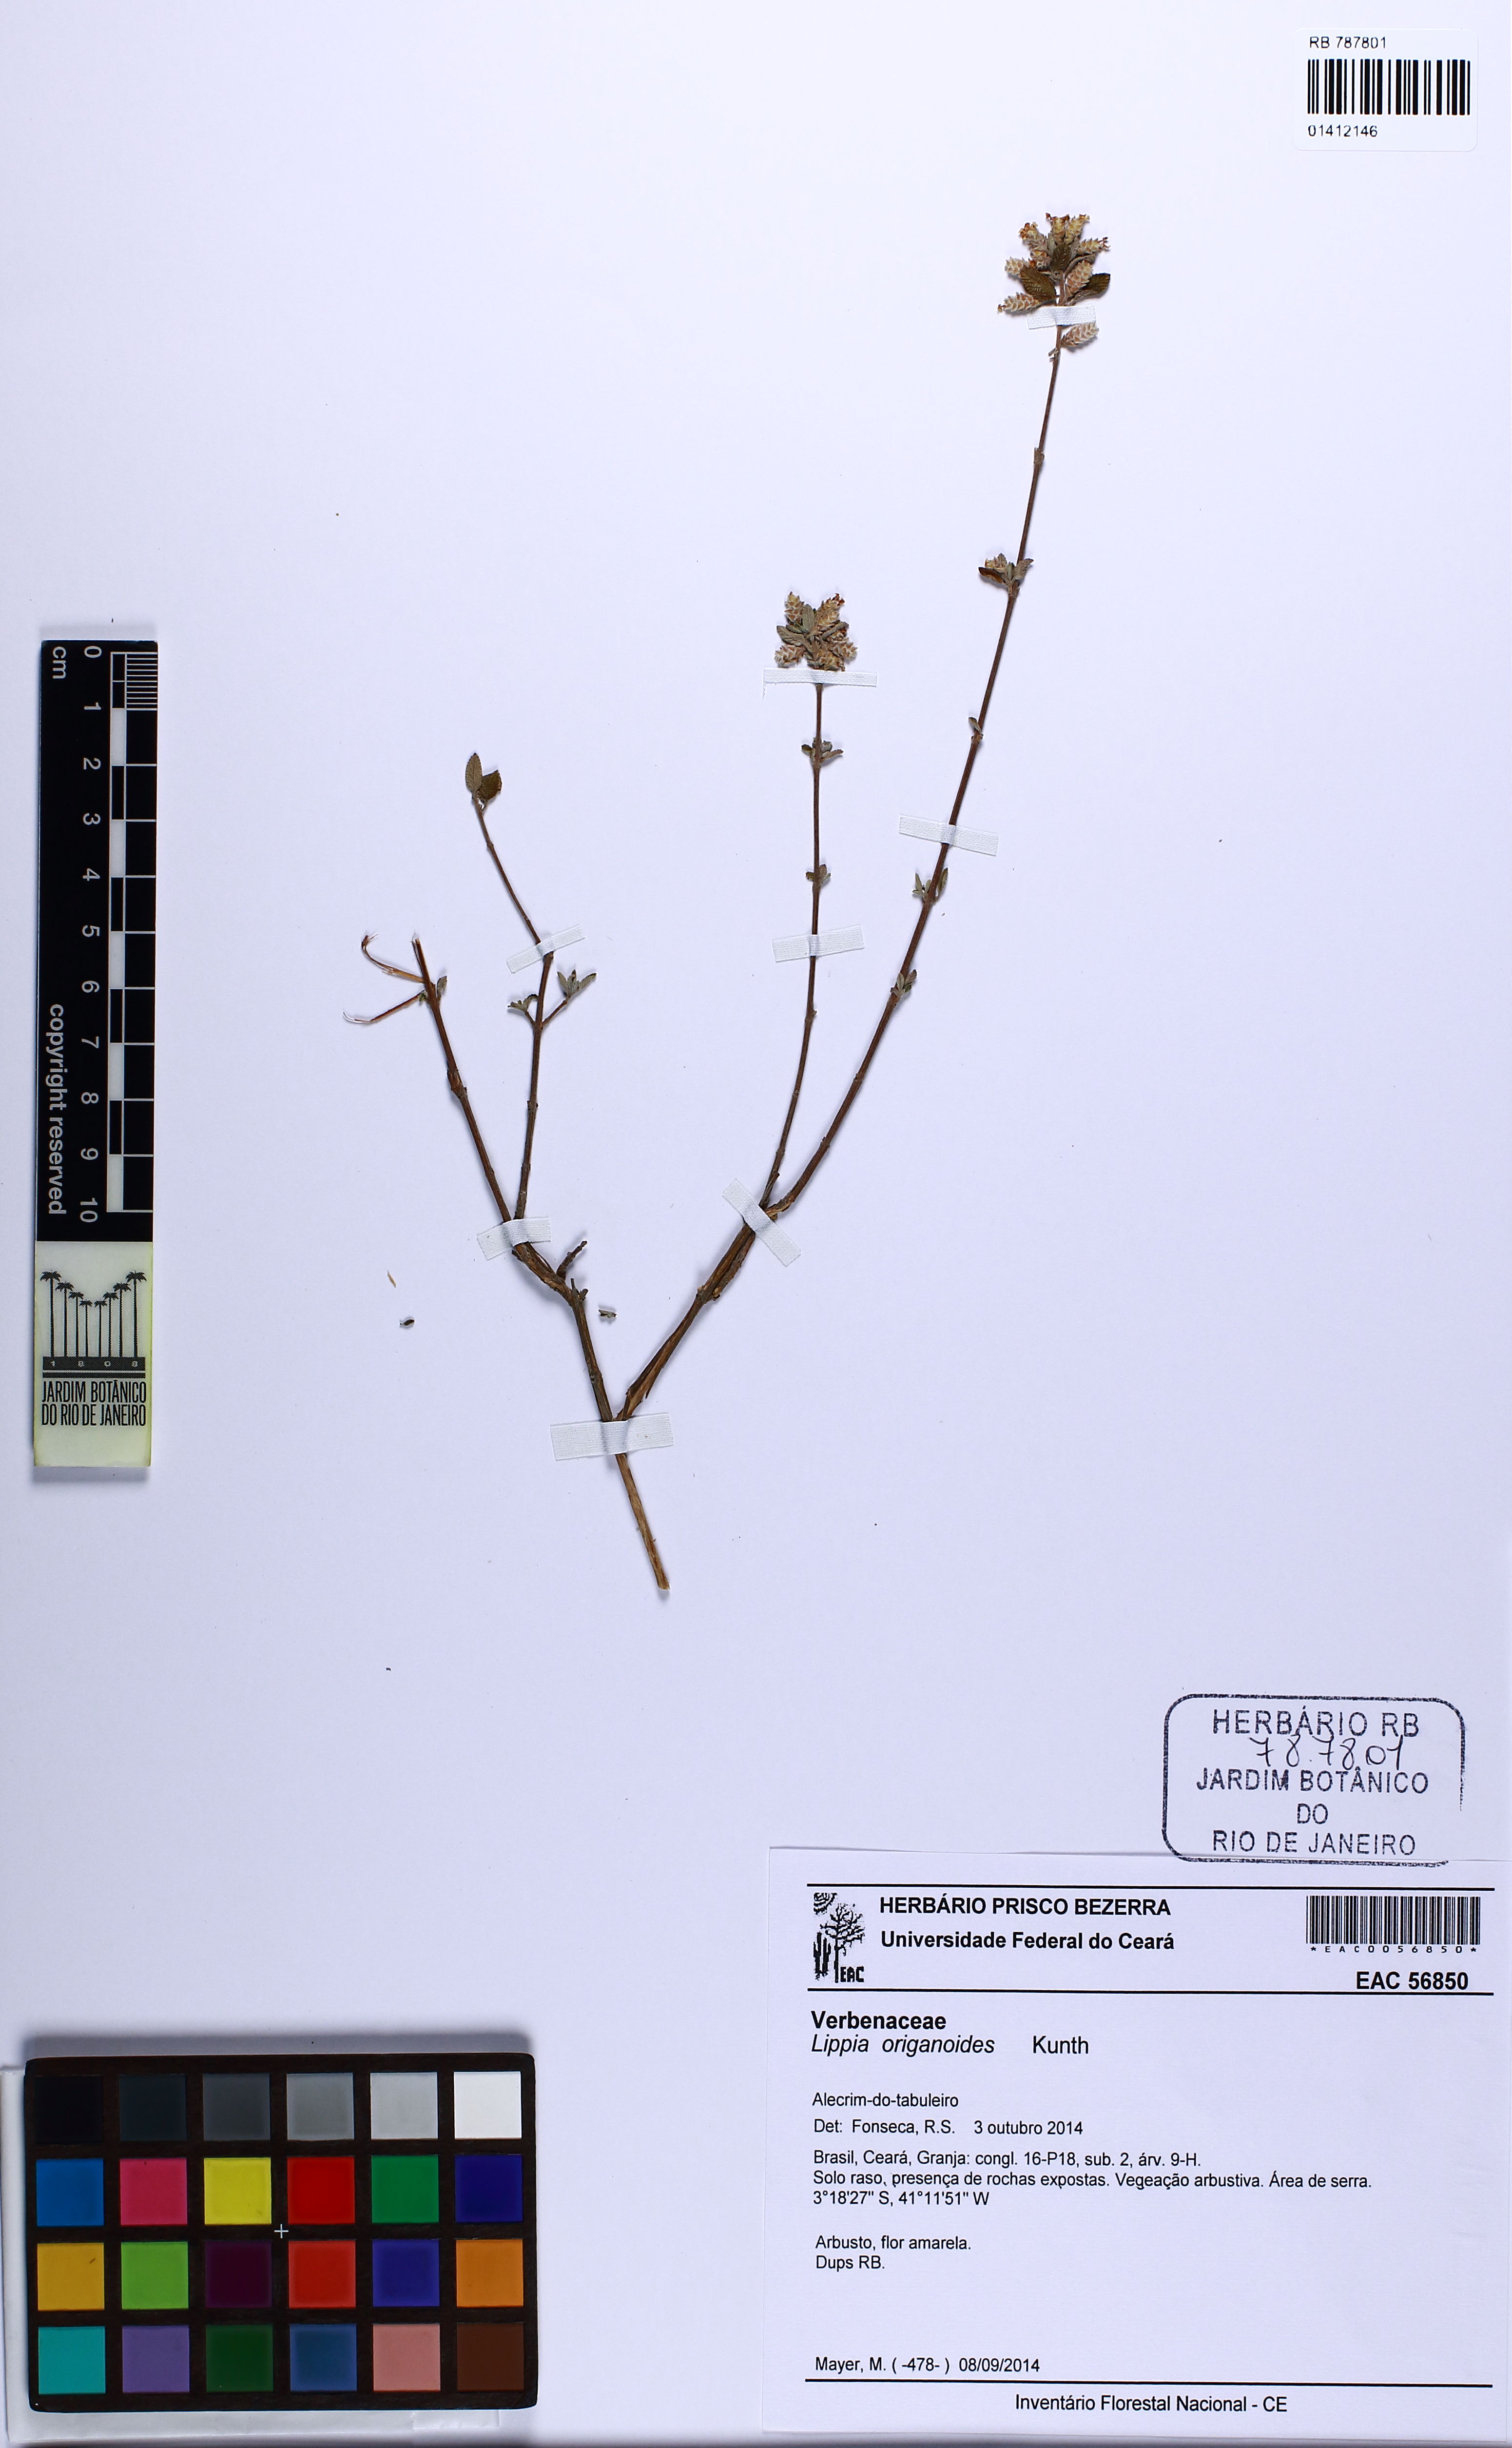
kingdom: Plantae
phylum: Tracheophyta
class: Magnoliopsida
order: Lamiales
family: Verbenaceae
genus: Lippia
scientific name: Lippia origanoides
